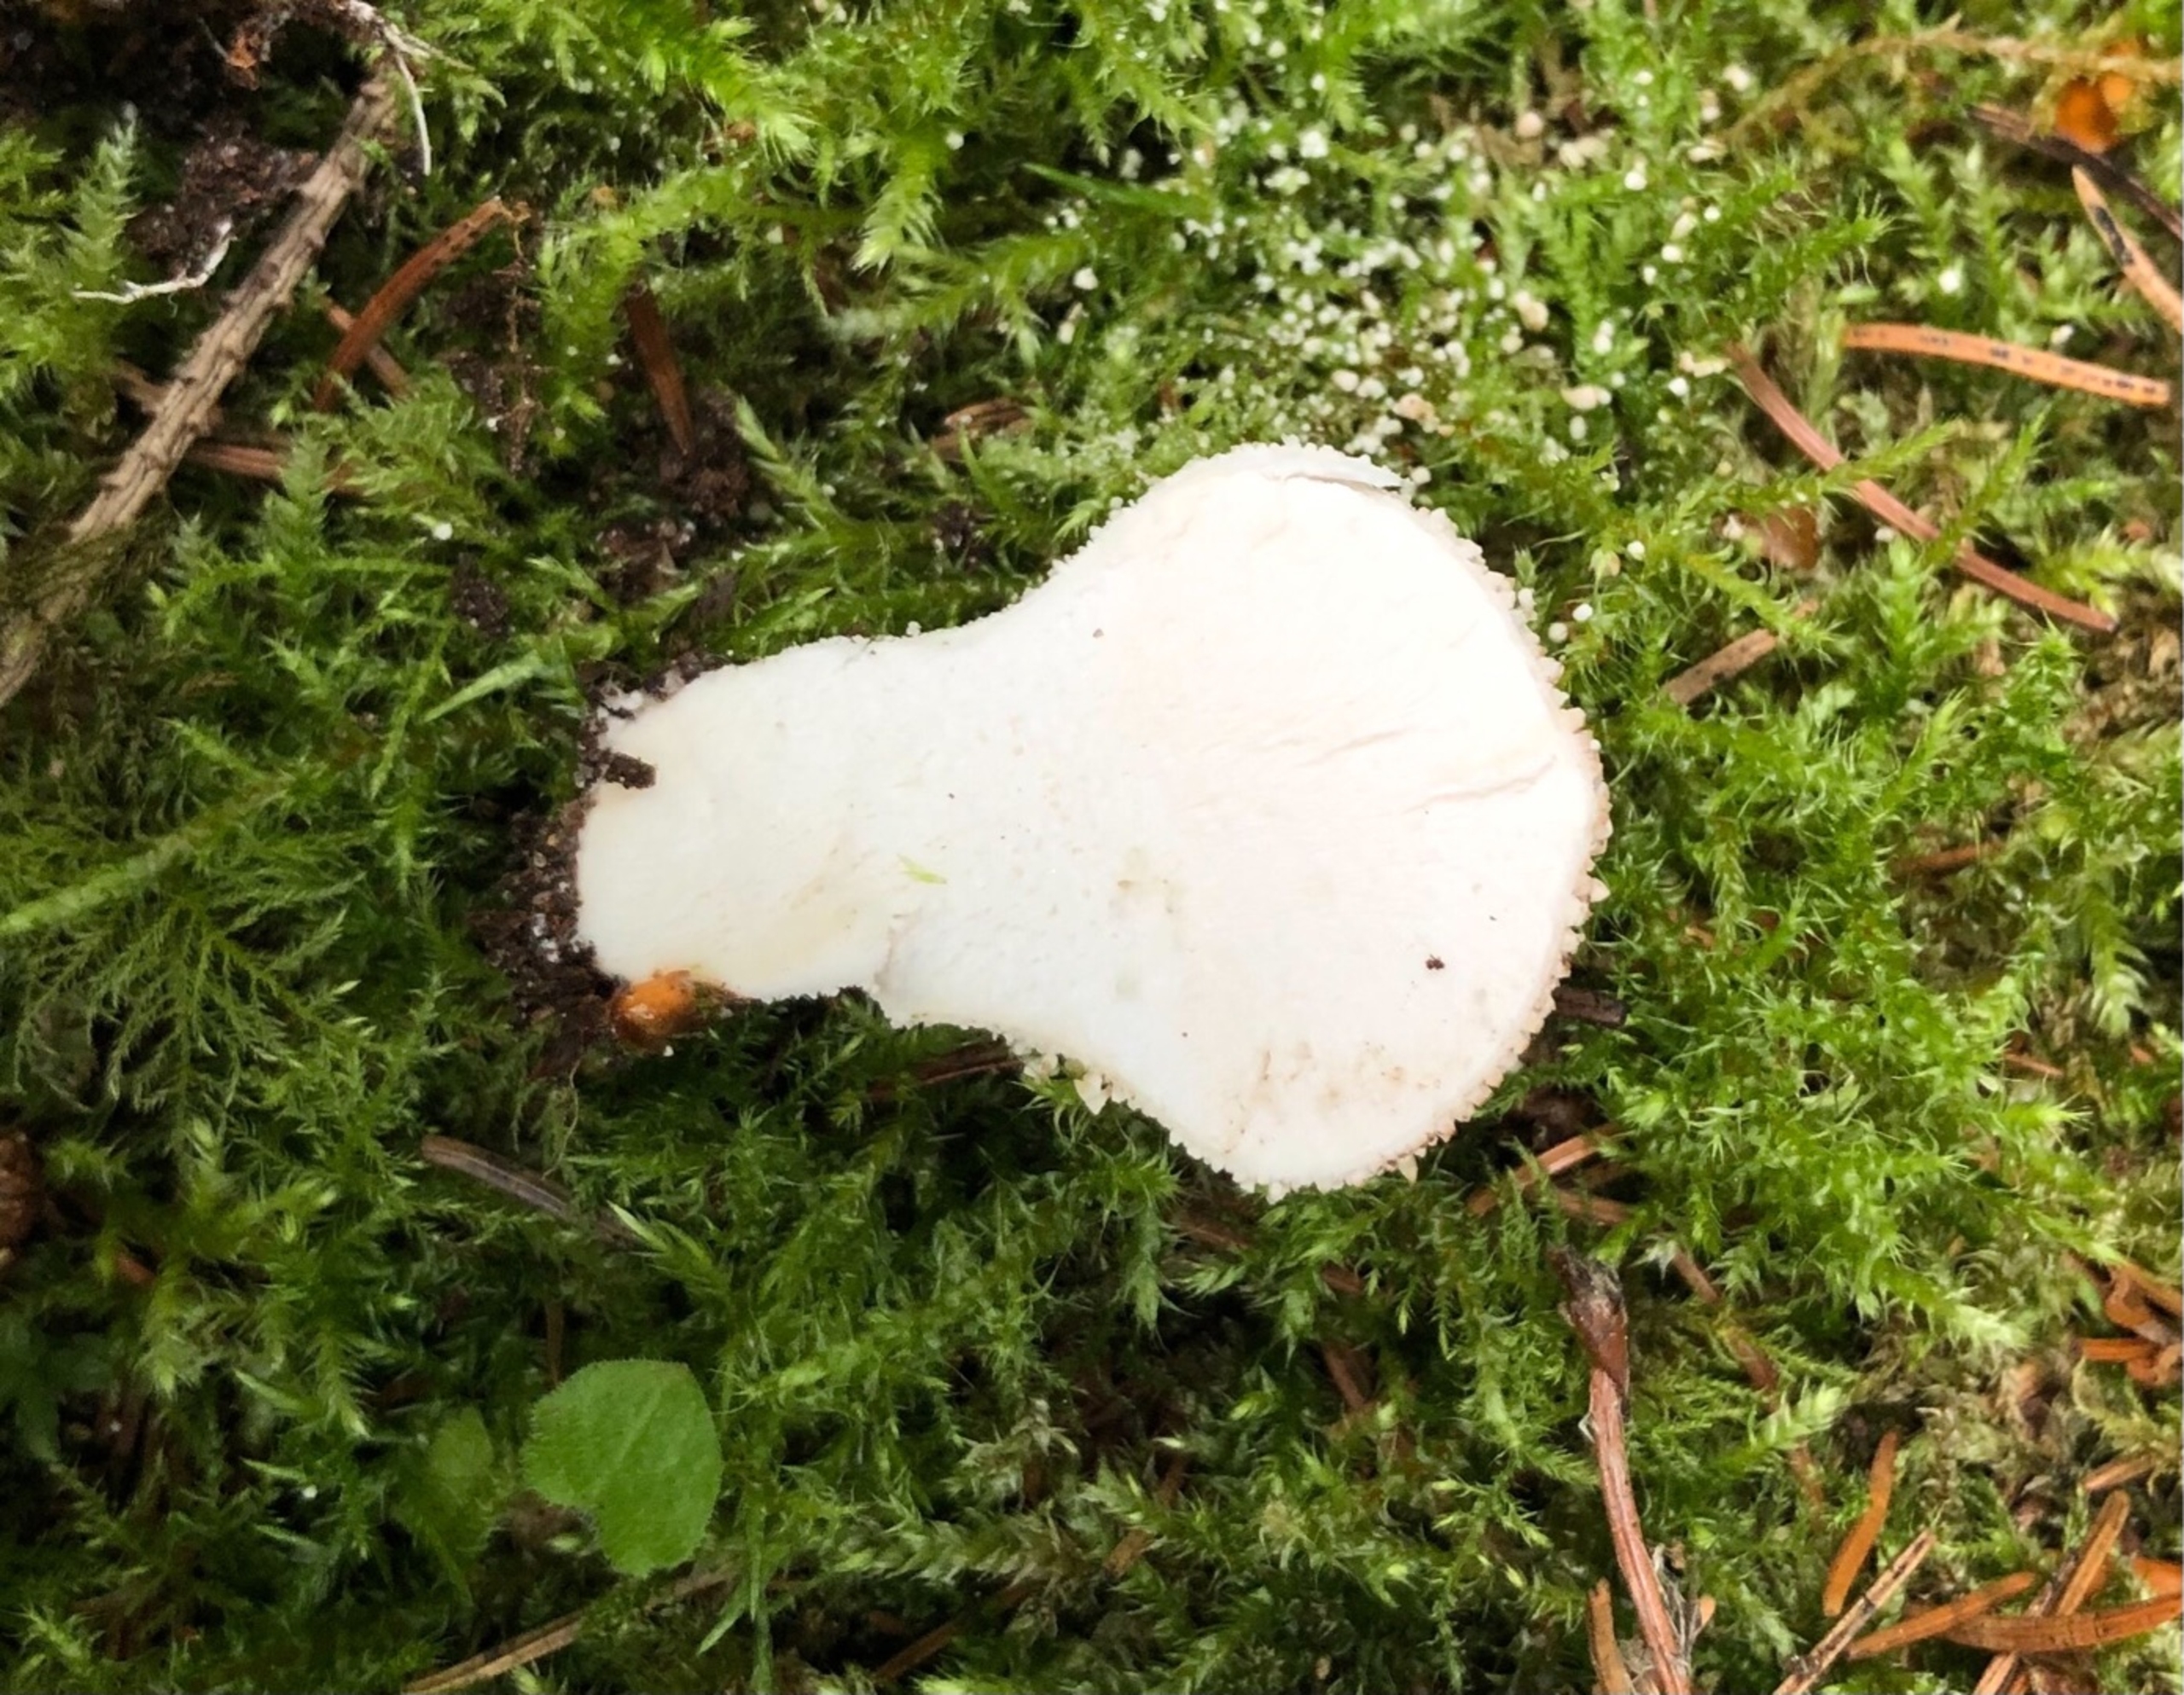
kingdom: Fungi
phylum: Basidiomycota
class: Agaricomycetes
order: Agaricales
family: Lycoperdaceae
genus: Lycoperdon
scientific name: Lycoperdon perlatum
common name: Krystal-støvbold
